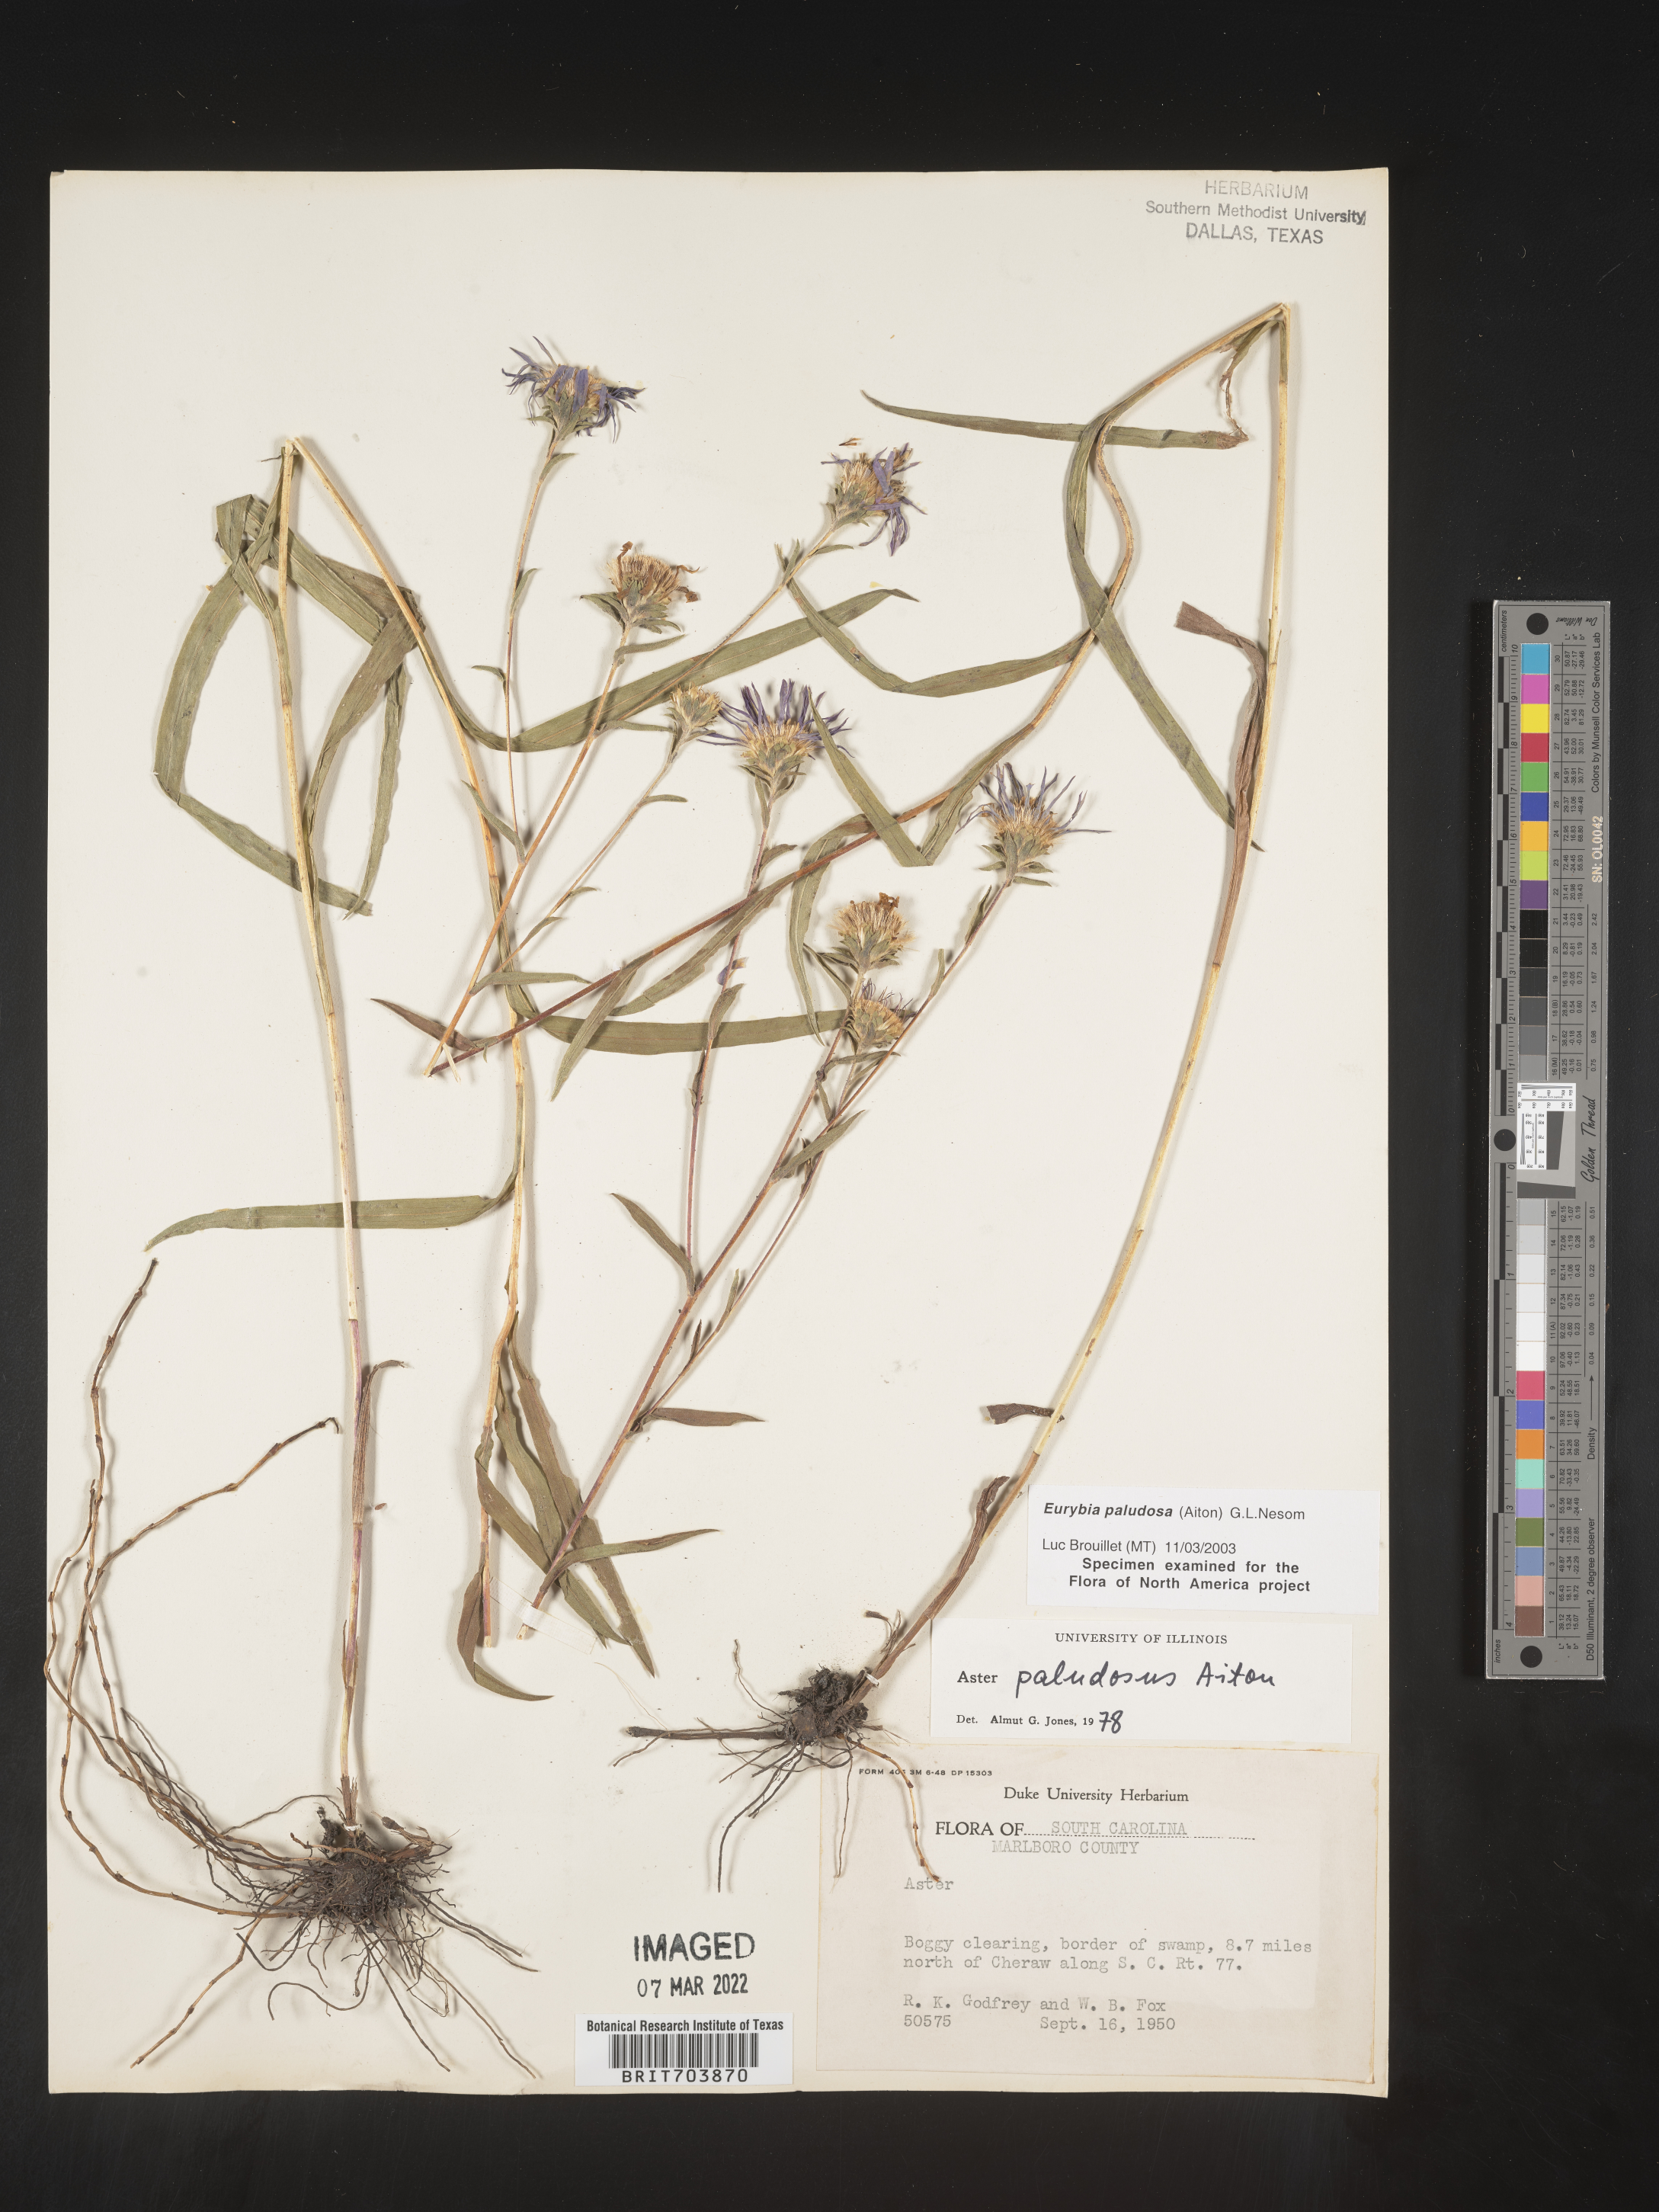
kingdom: Plantae
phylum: Tracheophyta
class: Magnoliopsida
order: Asterales
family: Asteraceae
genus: Eurybia
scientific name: Eurybia paludosa
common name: Southern swamp aster
